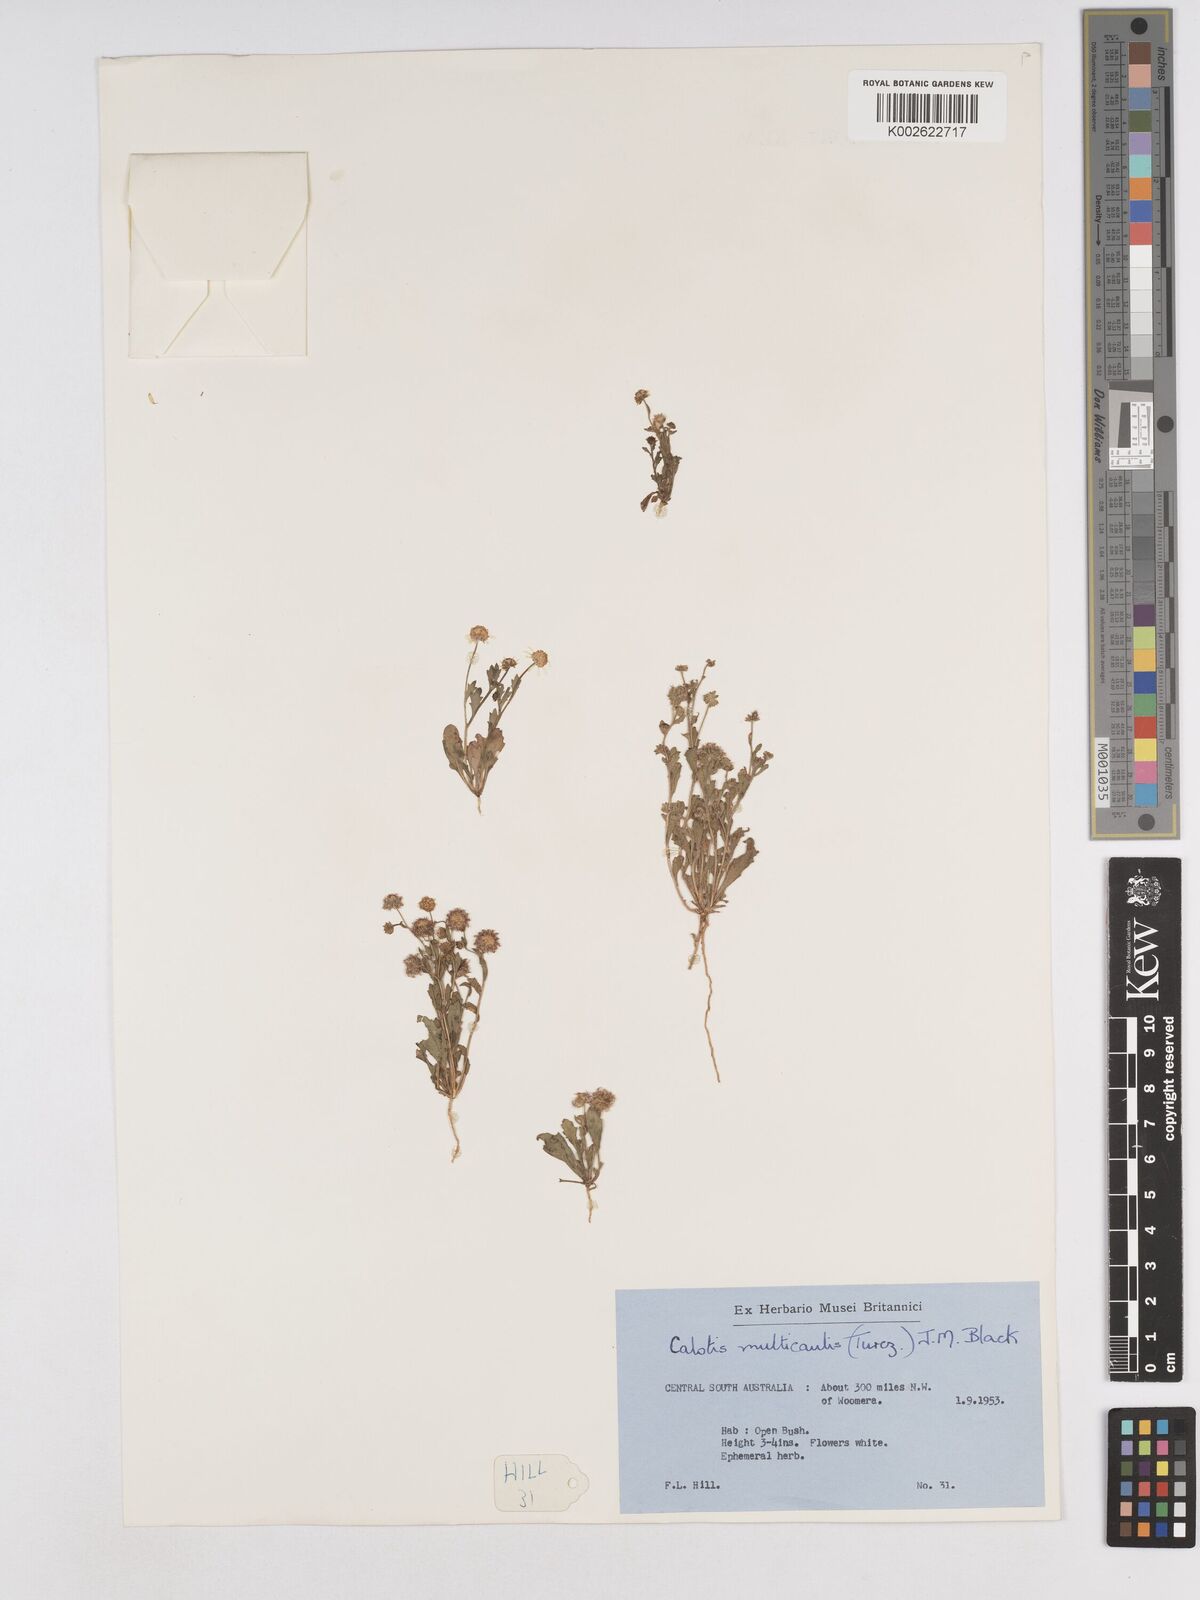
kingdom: Plantae
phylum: Tracheophyta
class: Magnoliopsida
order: Asterales
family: Asteraceae
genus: Calotis
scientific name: Calotis multicaulis
